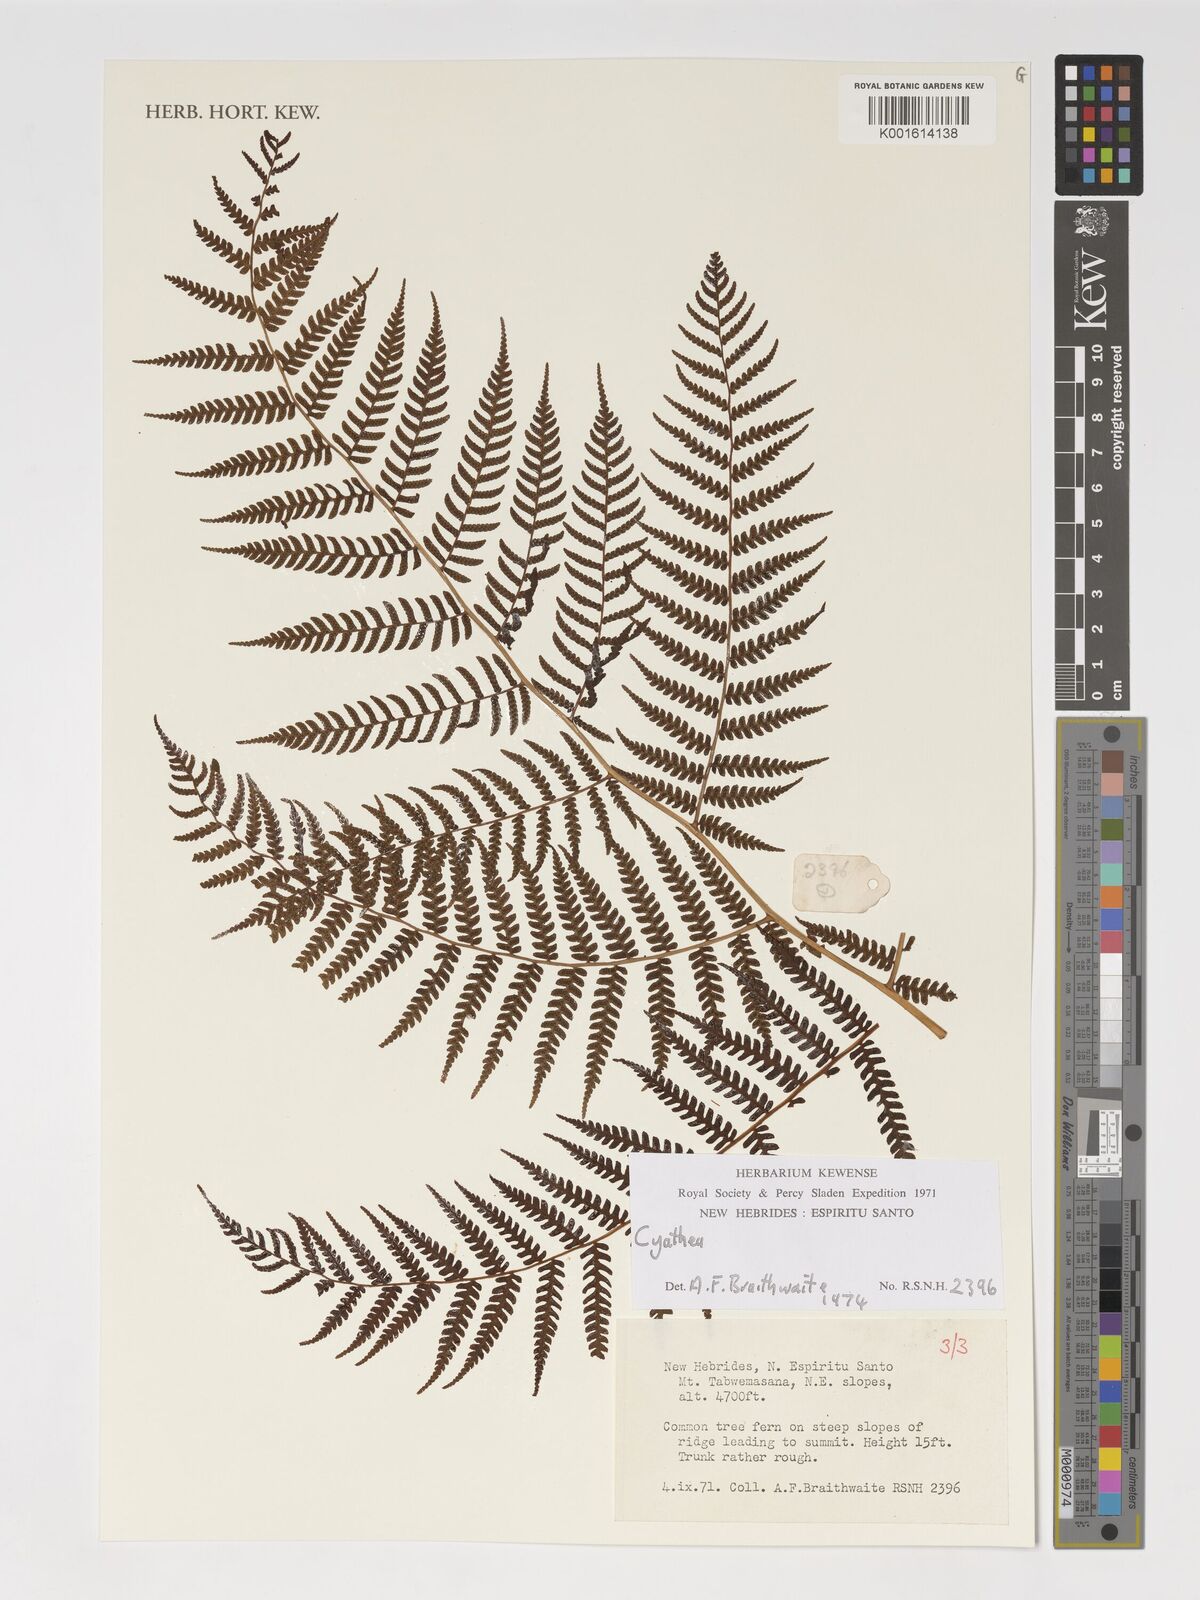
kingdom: Plantae
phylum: Tracheophyta
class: Polypodiopsida
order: Cyatheales
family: Cyatheaceae
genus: Cyathea
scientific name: Cyathea
